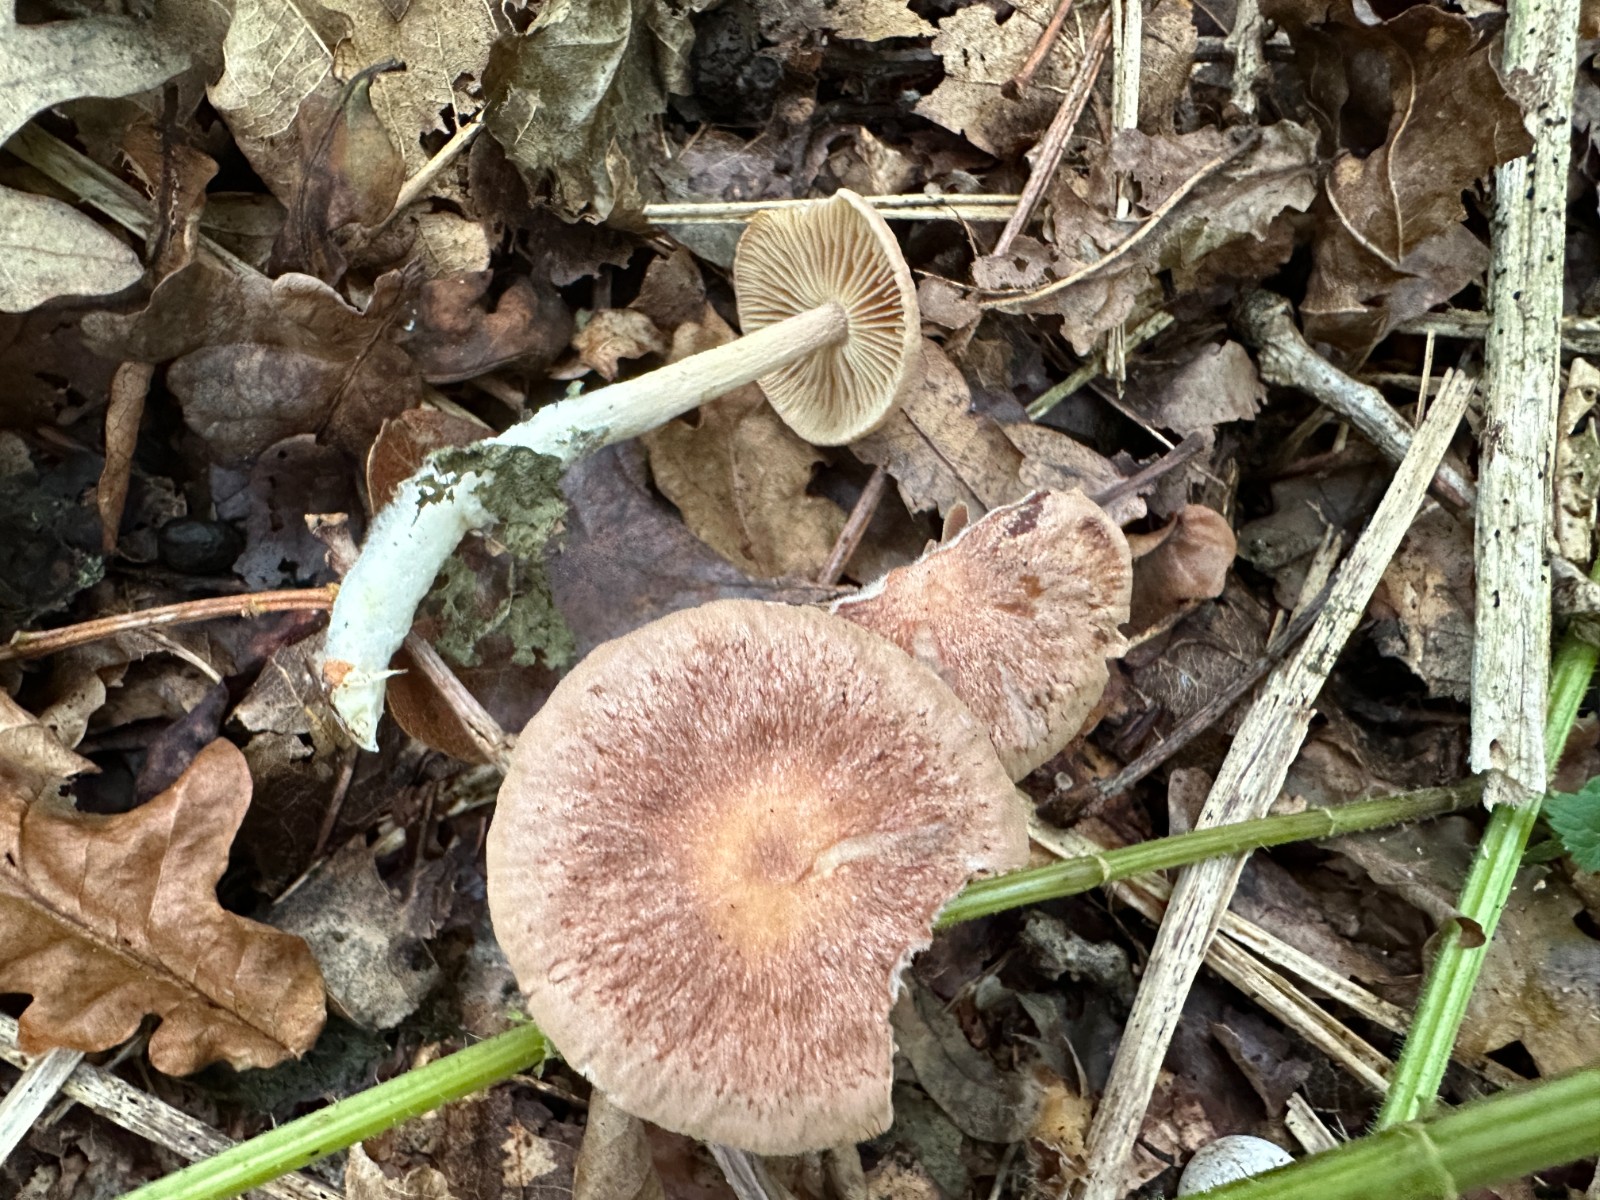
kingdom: Fungi
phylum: Basidiomycota
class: Agaricomycetes
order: Agaricales
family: Omphalotaceae
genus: Collybiopsis
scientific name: Collybiopsis peronata
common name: bestøvlet fladhat
